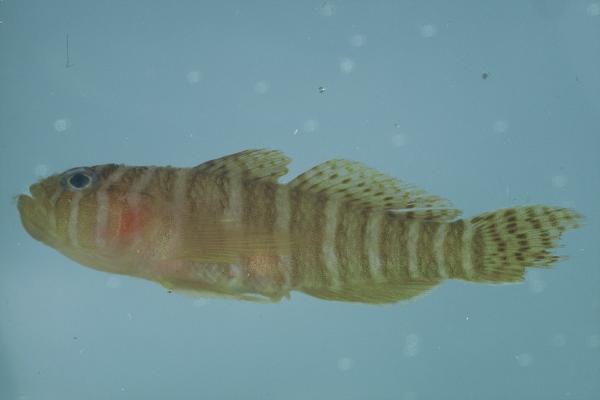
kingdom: Animalia
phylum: Chordata
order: Perciformes
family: Gobiidae
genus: Priolepis
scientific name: Priolepis cincta
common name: Banded reef-goby
